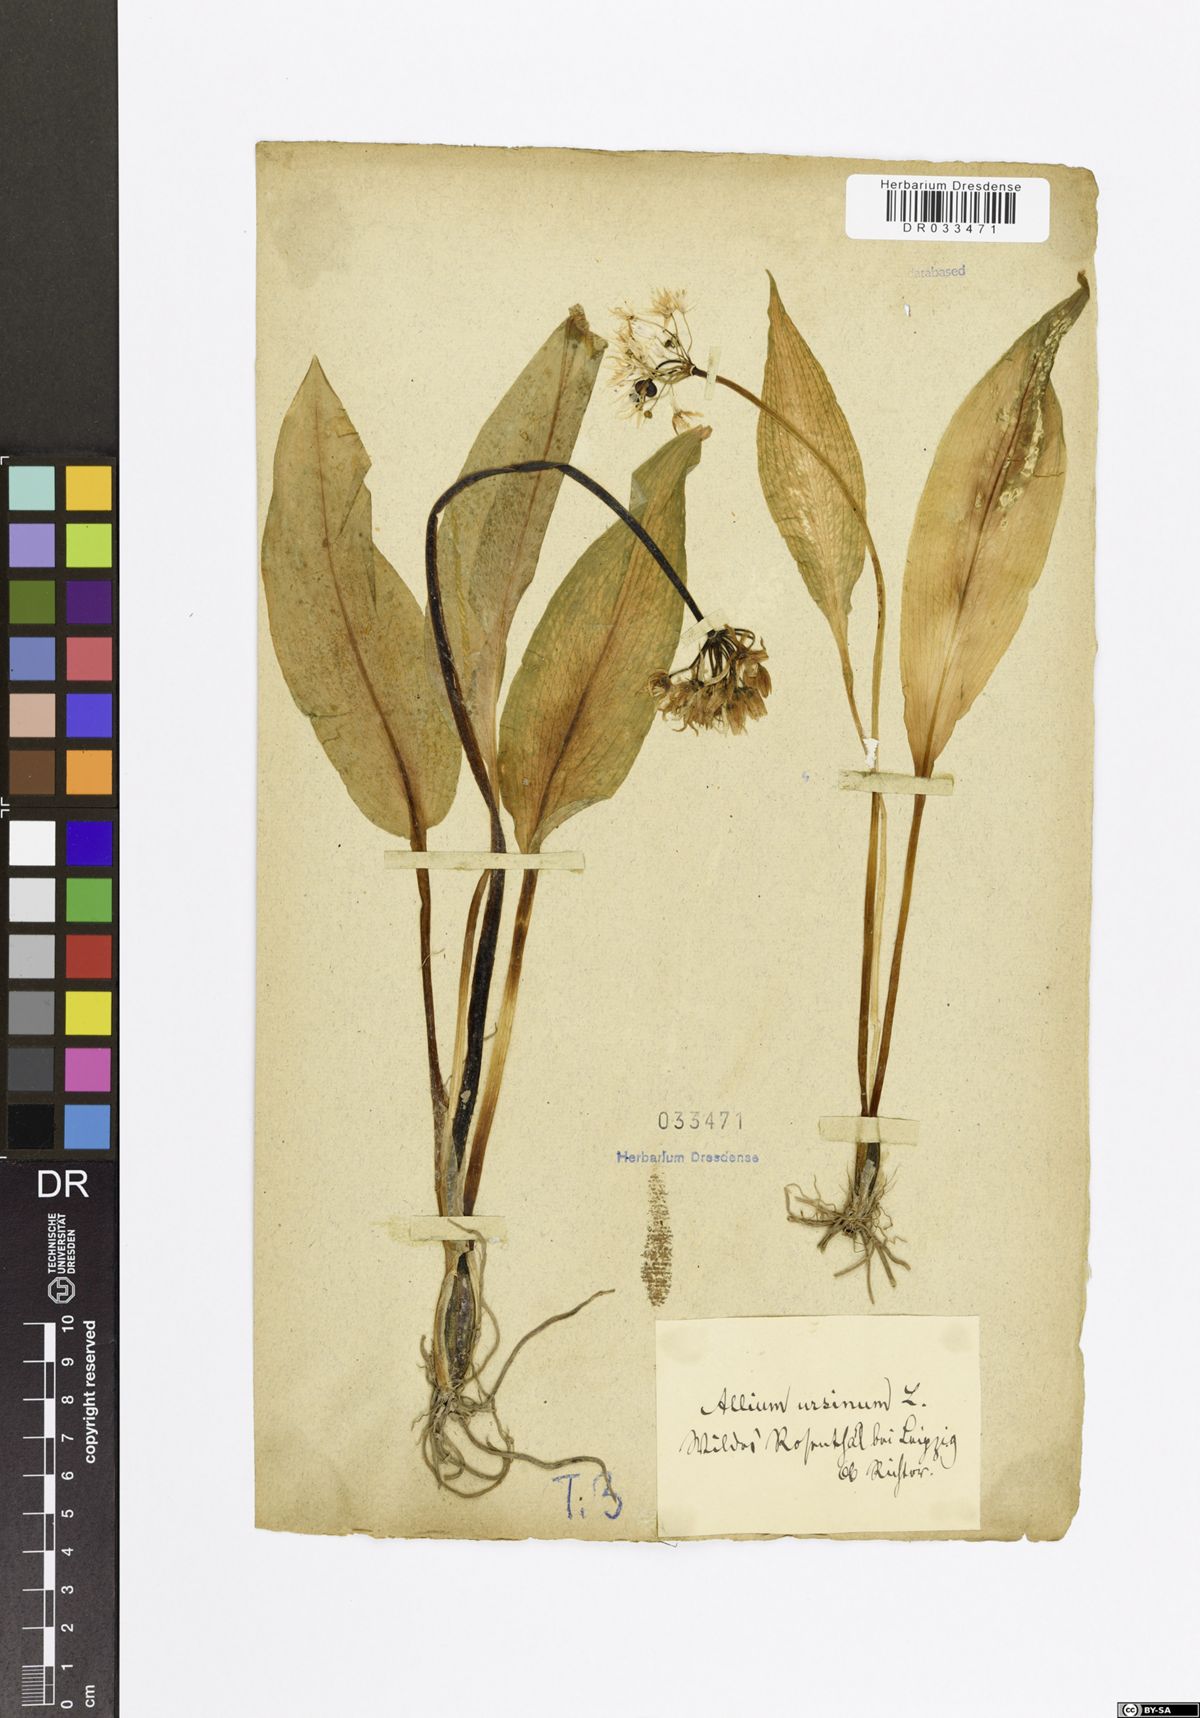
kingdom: Plantae
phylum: Tracheophyta
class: Liliopsida
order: Asparagales
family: Amaryllidaceae
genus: Allium
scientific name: Allium ursinum
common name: Ramsons
